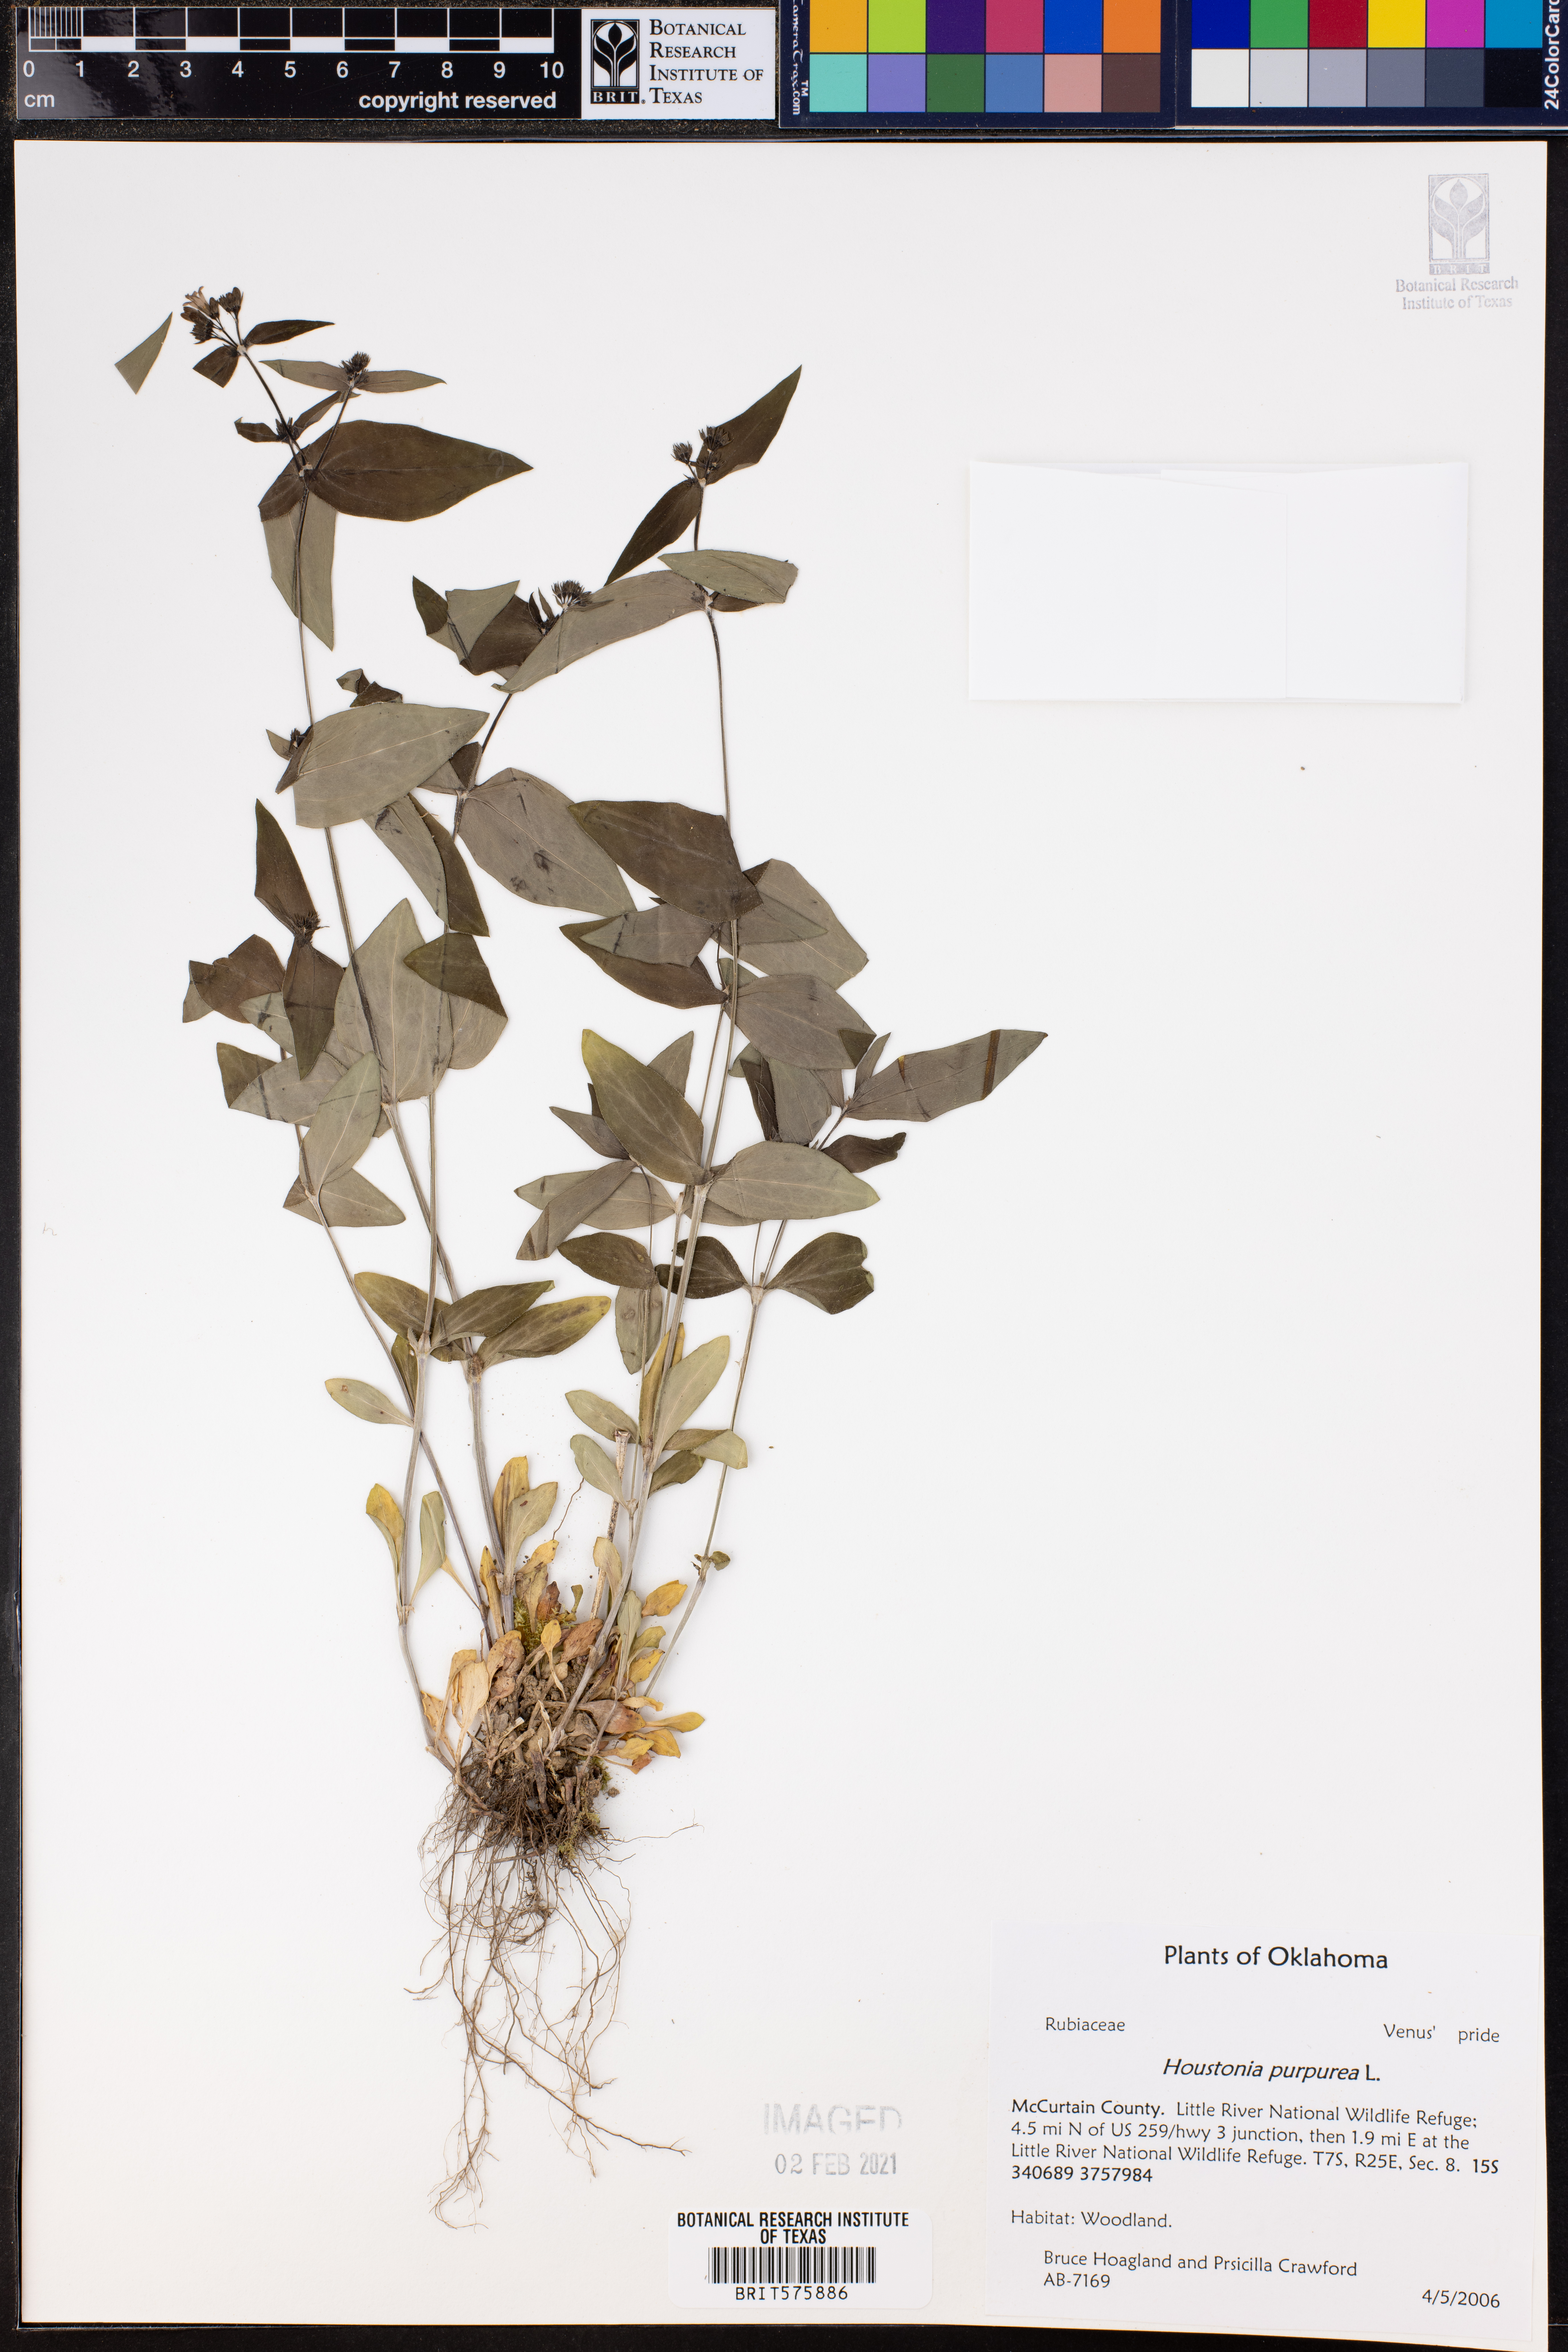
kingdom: Plantae
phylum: Tracheophyta
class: Magnoliopsida
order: Gentianales
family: Rubiaceae
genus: Houstonia
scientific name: Houstonia purpurea
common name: Summer bluet
